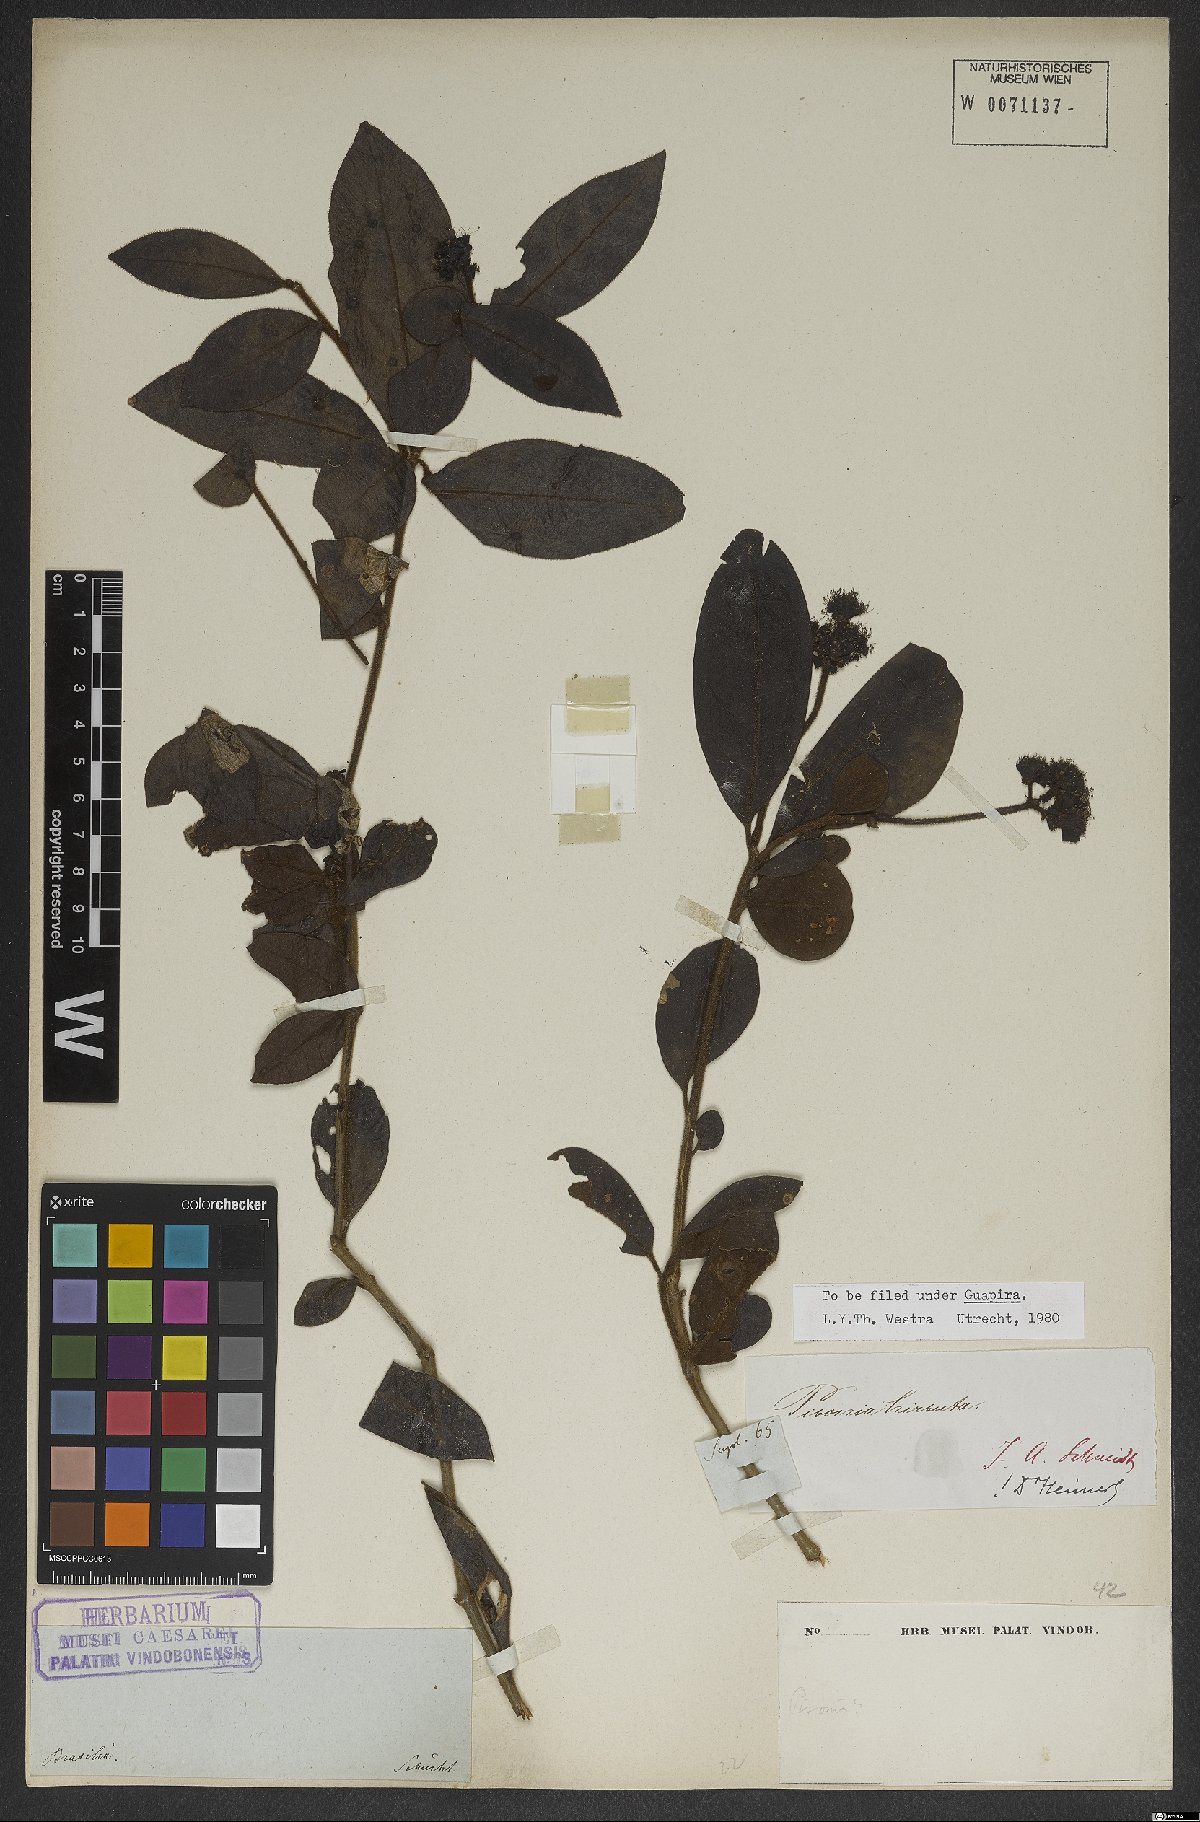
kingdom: Plantae
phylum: Tracheophyta
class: Magnoliopsida
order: Caryophyllales
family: Nyctaginaceae
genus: Guapira
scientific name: Guapira hirsuta
